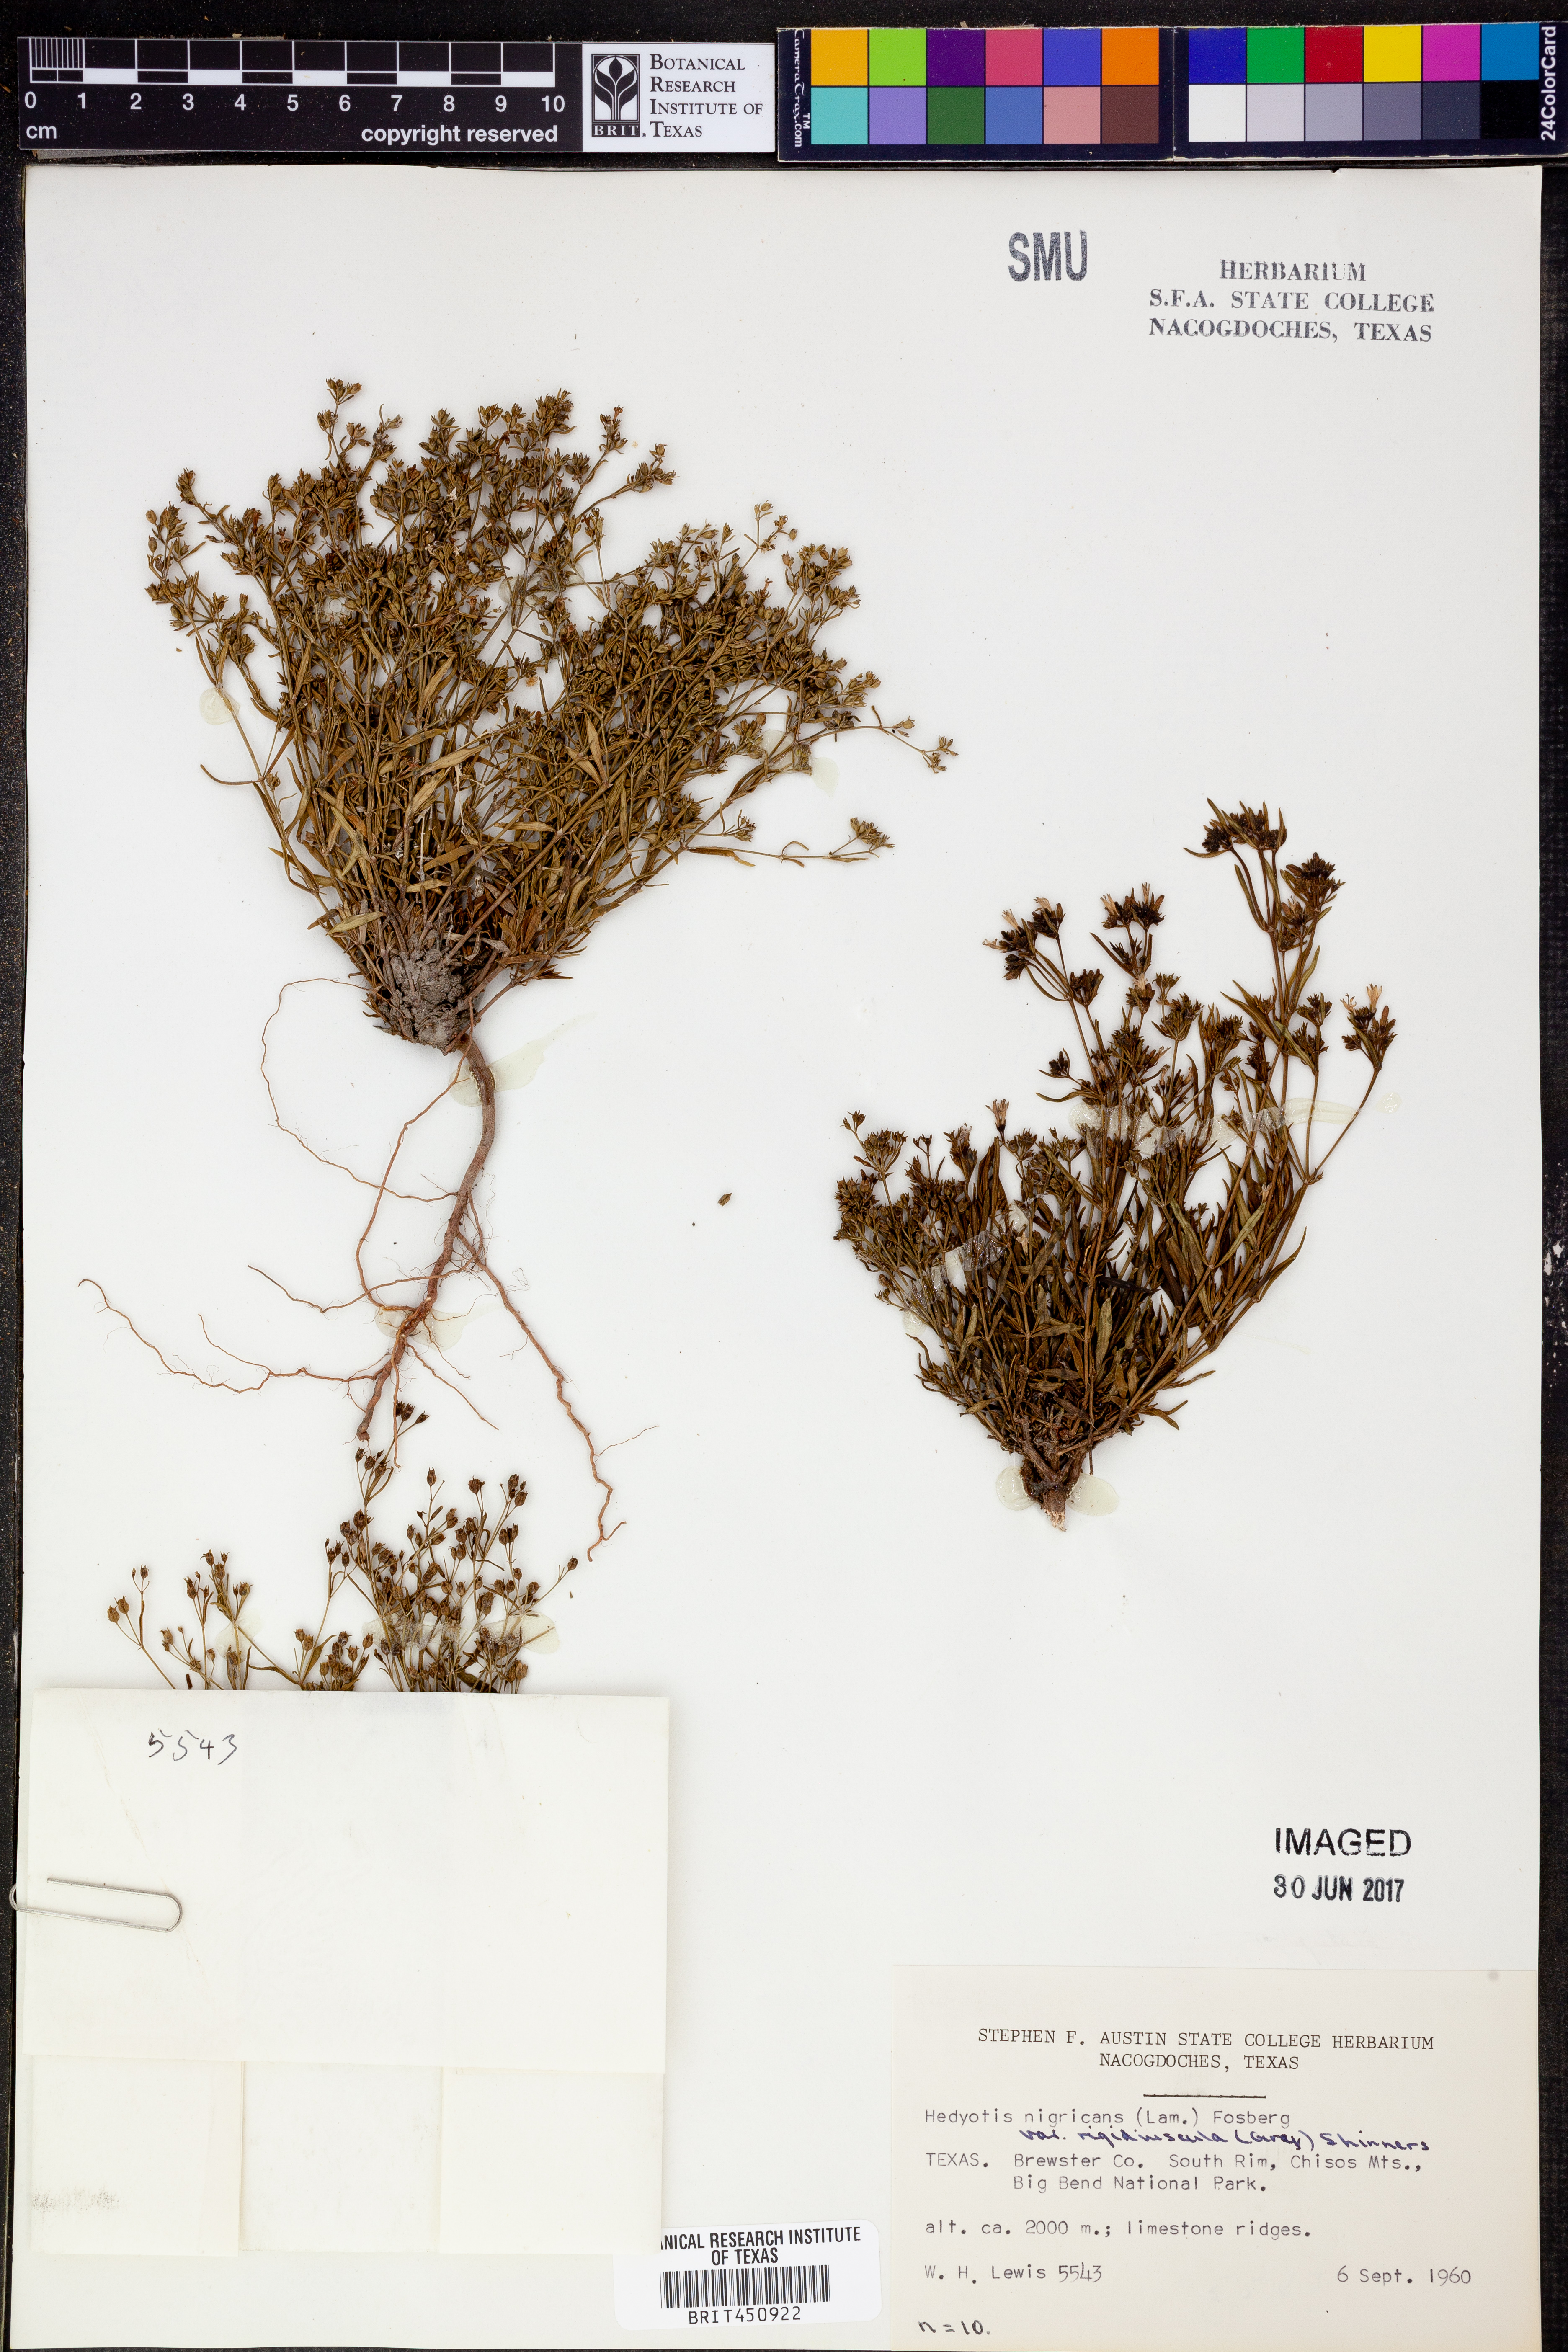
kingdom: Plantae
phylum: Tracheophyta
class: Magnoliopsida
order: Gentianales
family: Rubiaceae
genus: Houstonia
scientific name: Houstonia purpurea
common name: Summer bluet
